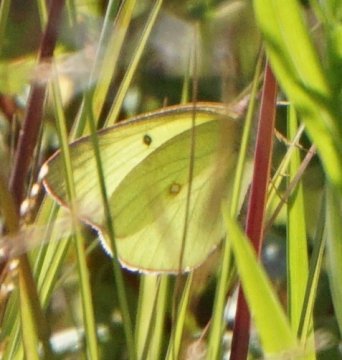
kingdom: Animalia
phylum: Arthropoda
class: Insecta
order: Lepidoptera
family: Pieridae
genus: Colias
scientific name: Colias interior
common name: Pink-edged Sulphur
